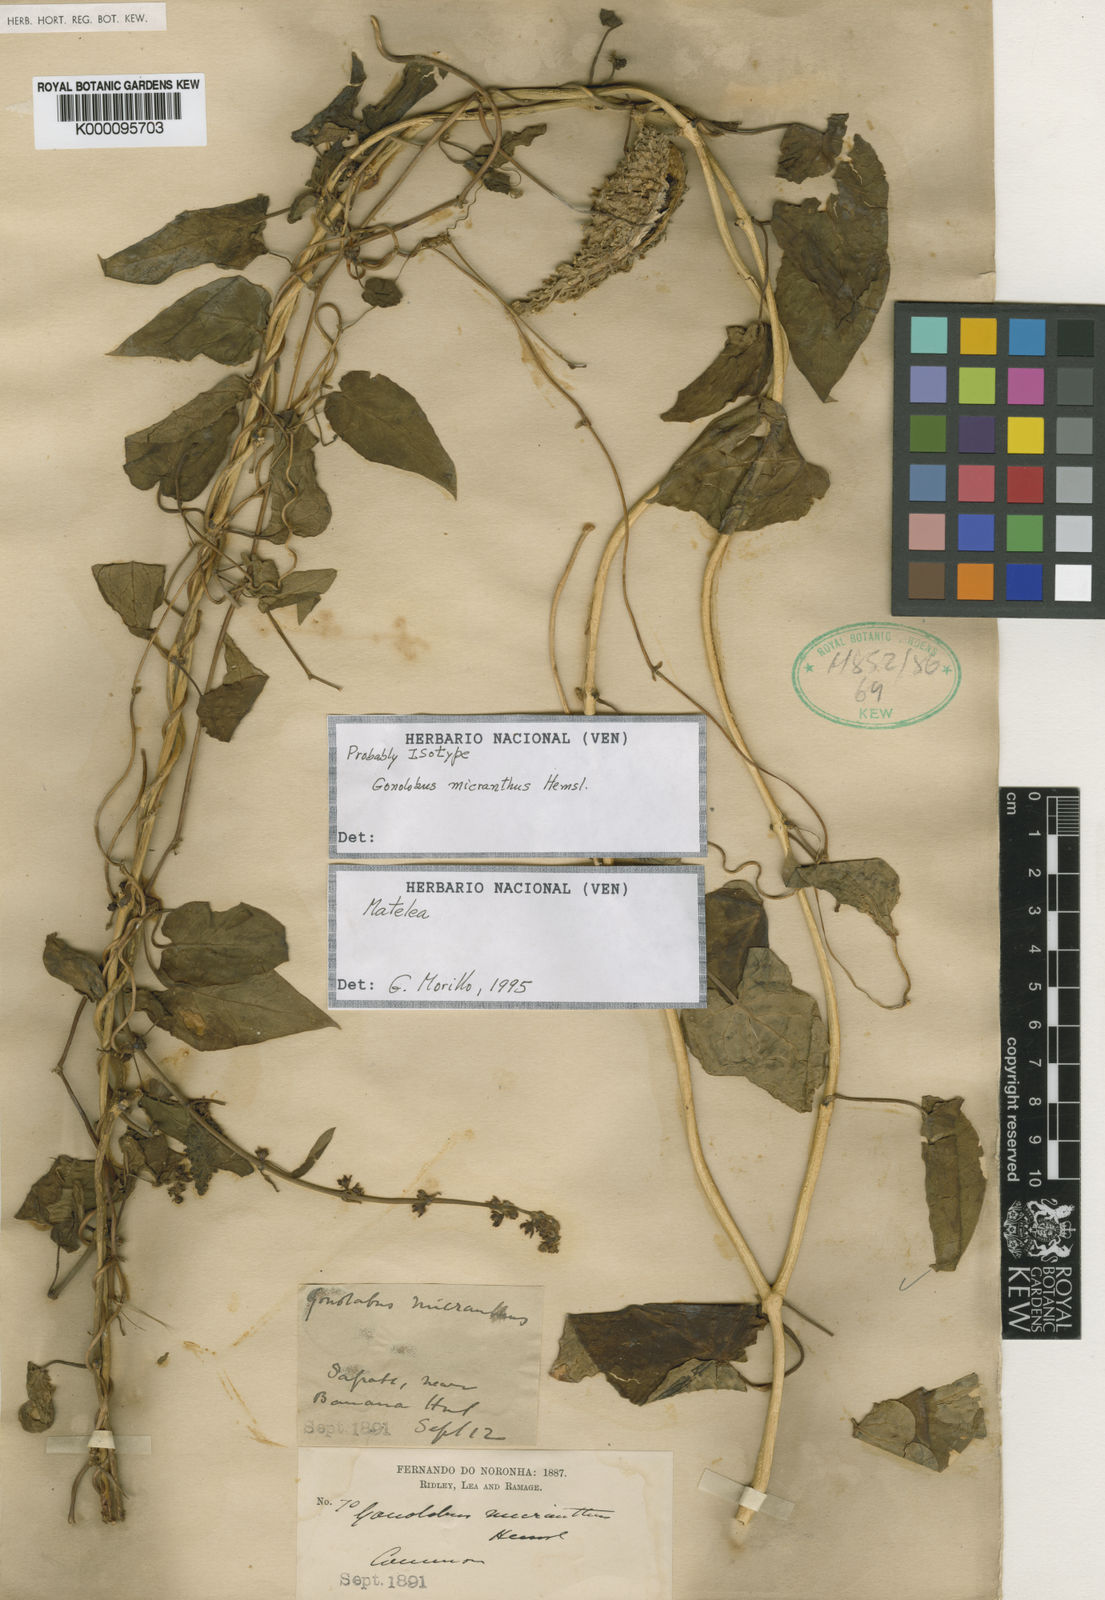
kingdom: Plantae
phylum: Tracheophyta
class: Magnoliopsida
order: Gentianales
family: Apocynaceae
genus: Ibatia
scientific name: Ibatia maritima
